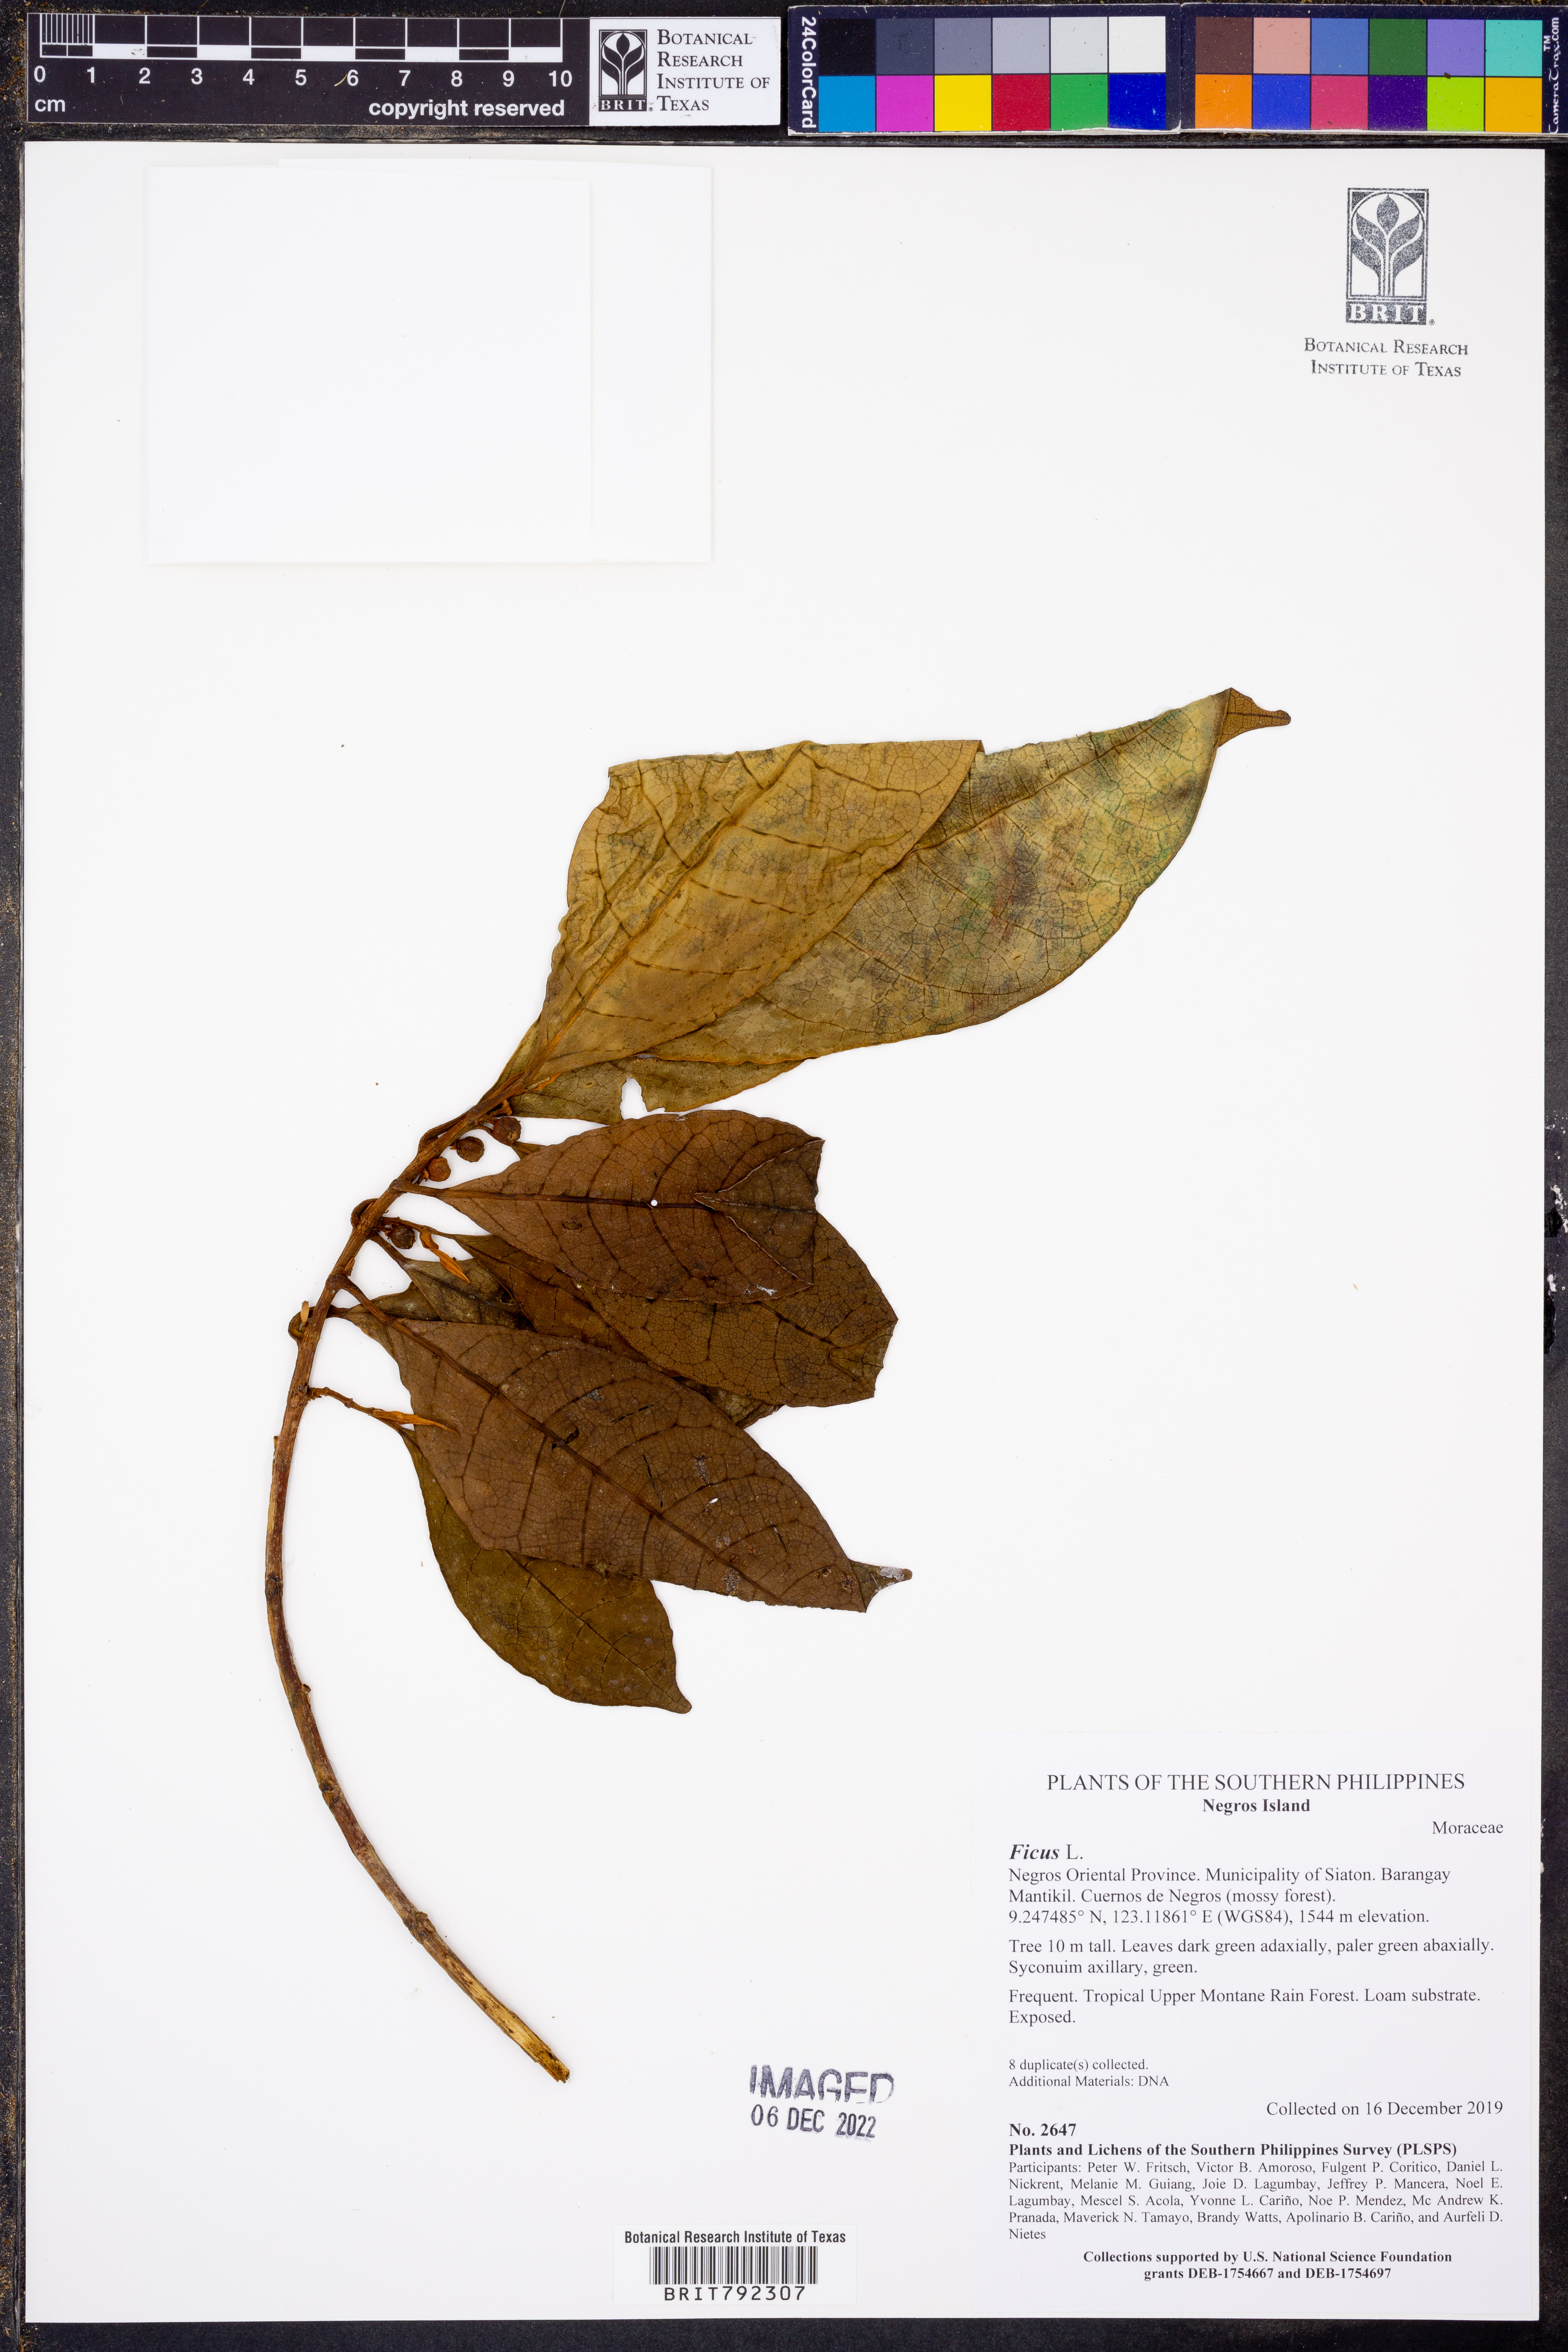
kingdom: Plantae
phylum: Tracheophyta
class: Magnoliopsida
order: Rosales
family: Moraceae
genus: Ficus
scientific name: Ficus
